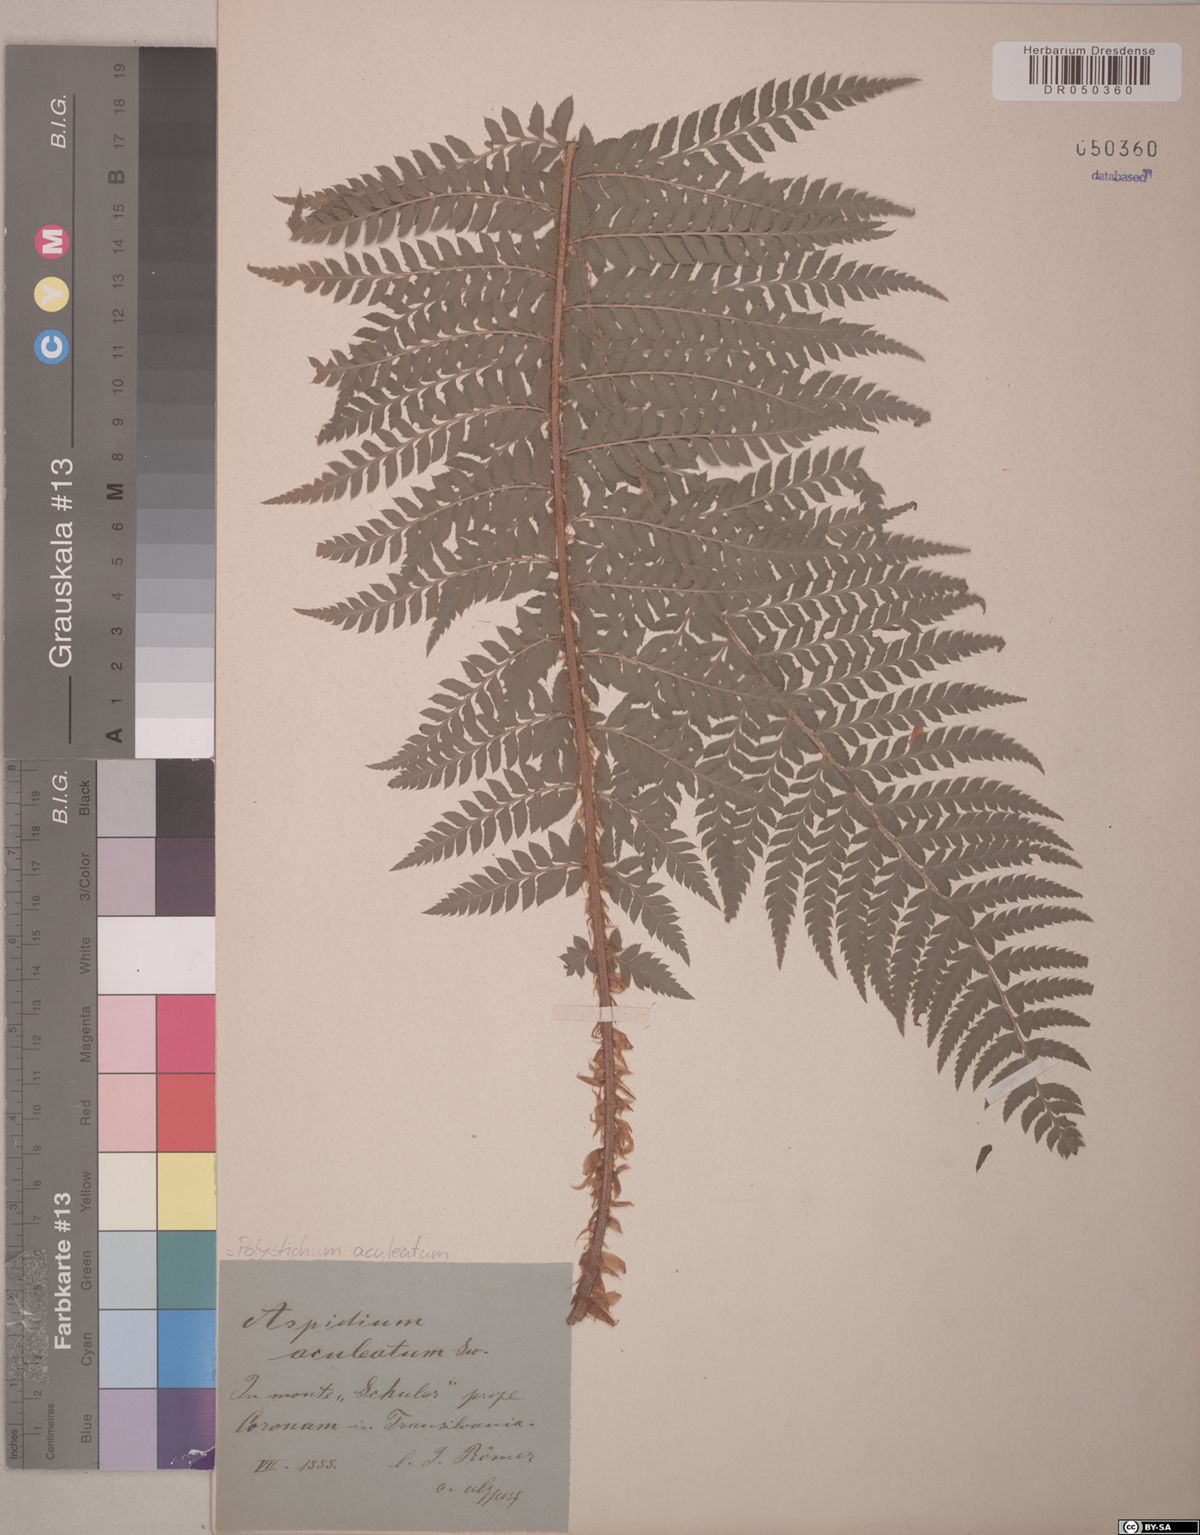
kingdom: Plantae
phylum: Tracheophyta
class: Polypodiopsida
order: Polypodiales
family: Dryopteridaceae
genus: Polystichum
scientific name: Polystichum aculeatum
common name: Hard shield-fern
